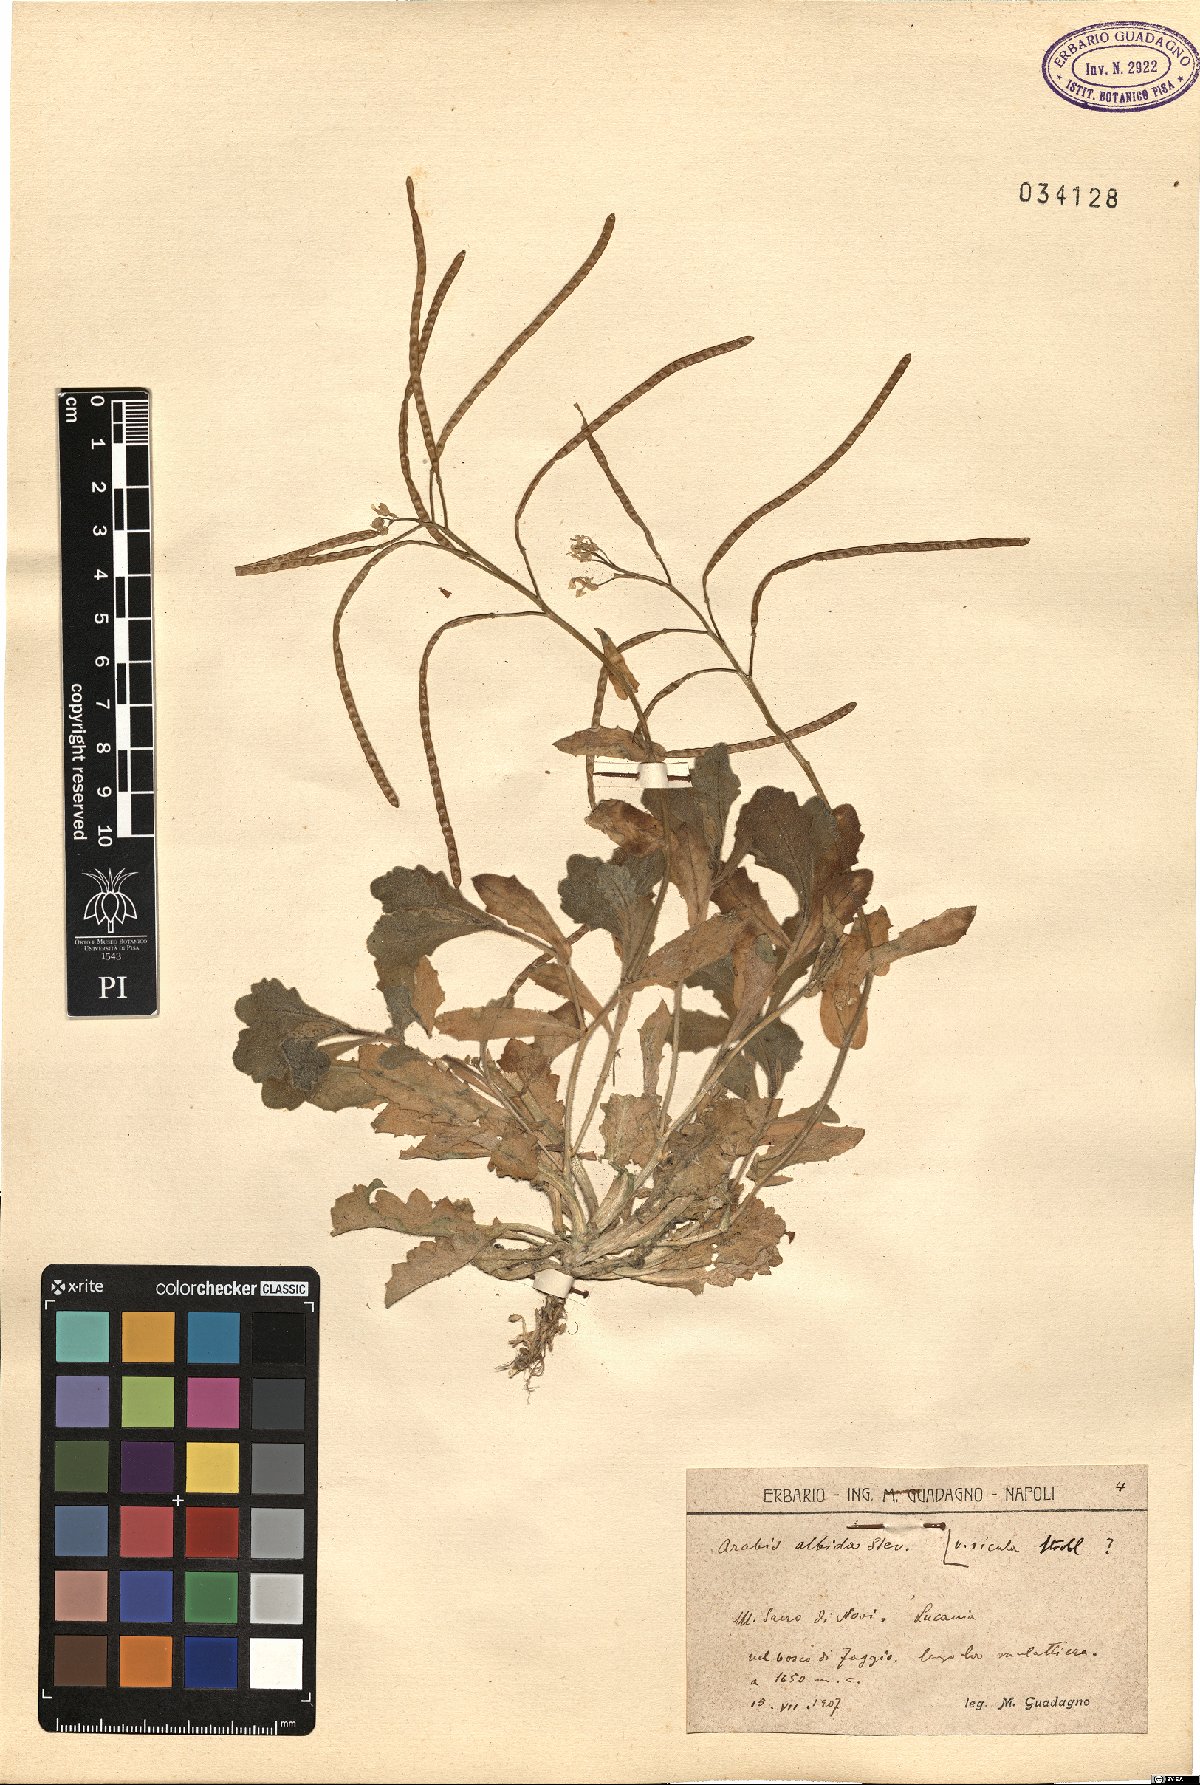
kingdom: Plantae
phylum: Tracheophyta
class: Magnoliopsida
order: Brassicales
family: Brassicaceae
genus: Arabis
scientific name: Arabis
